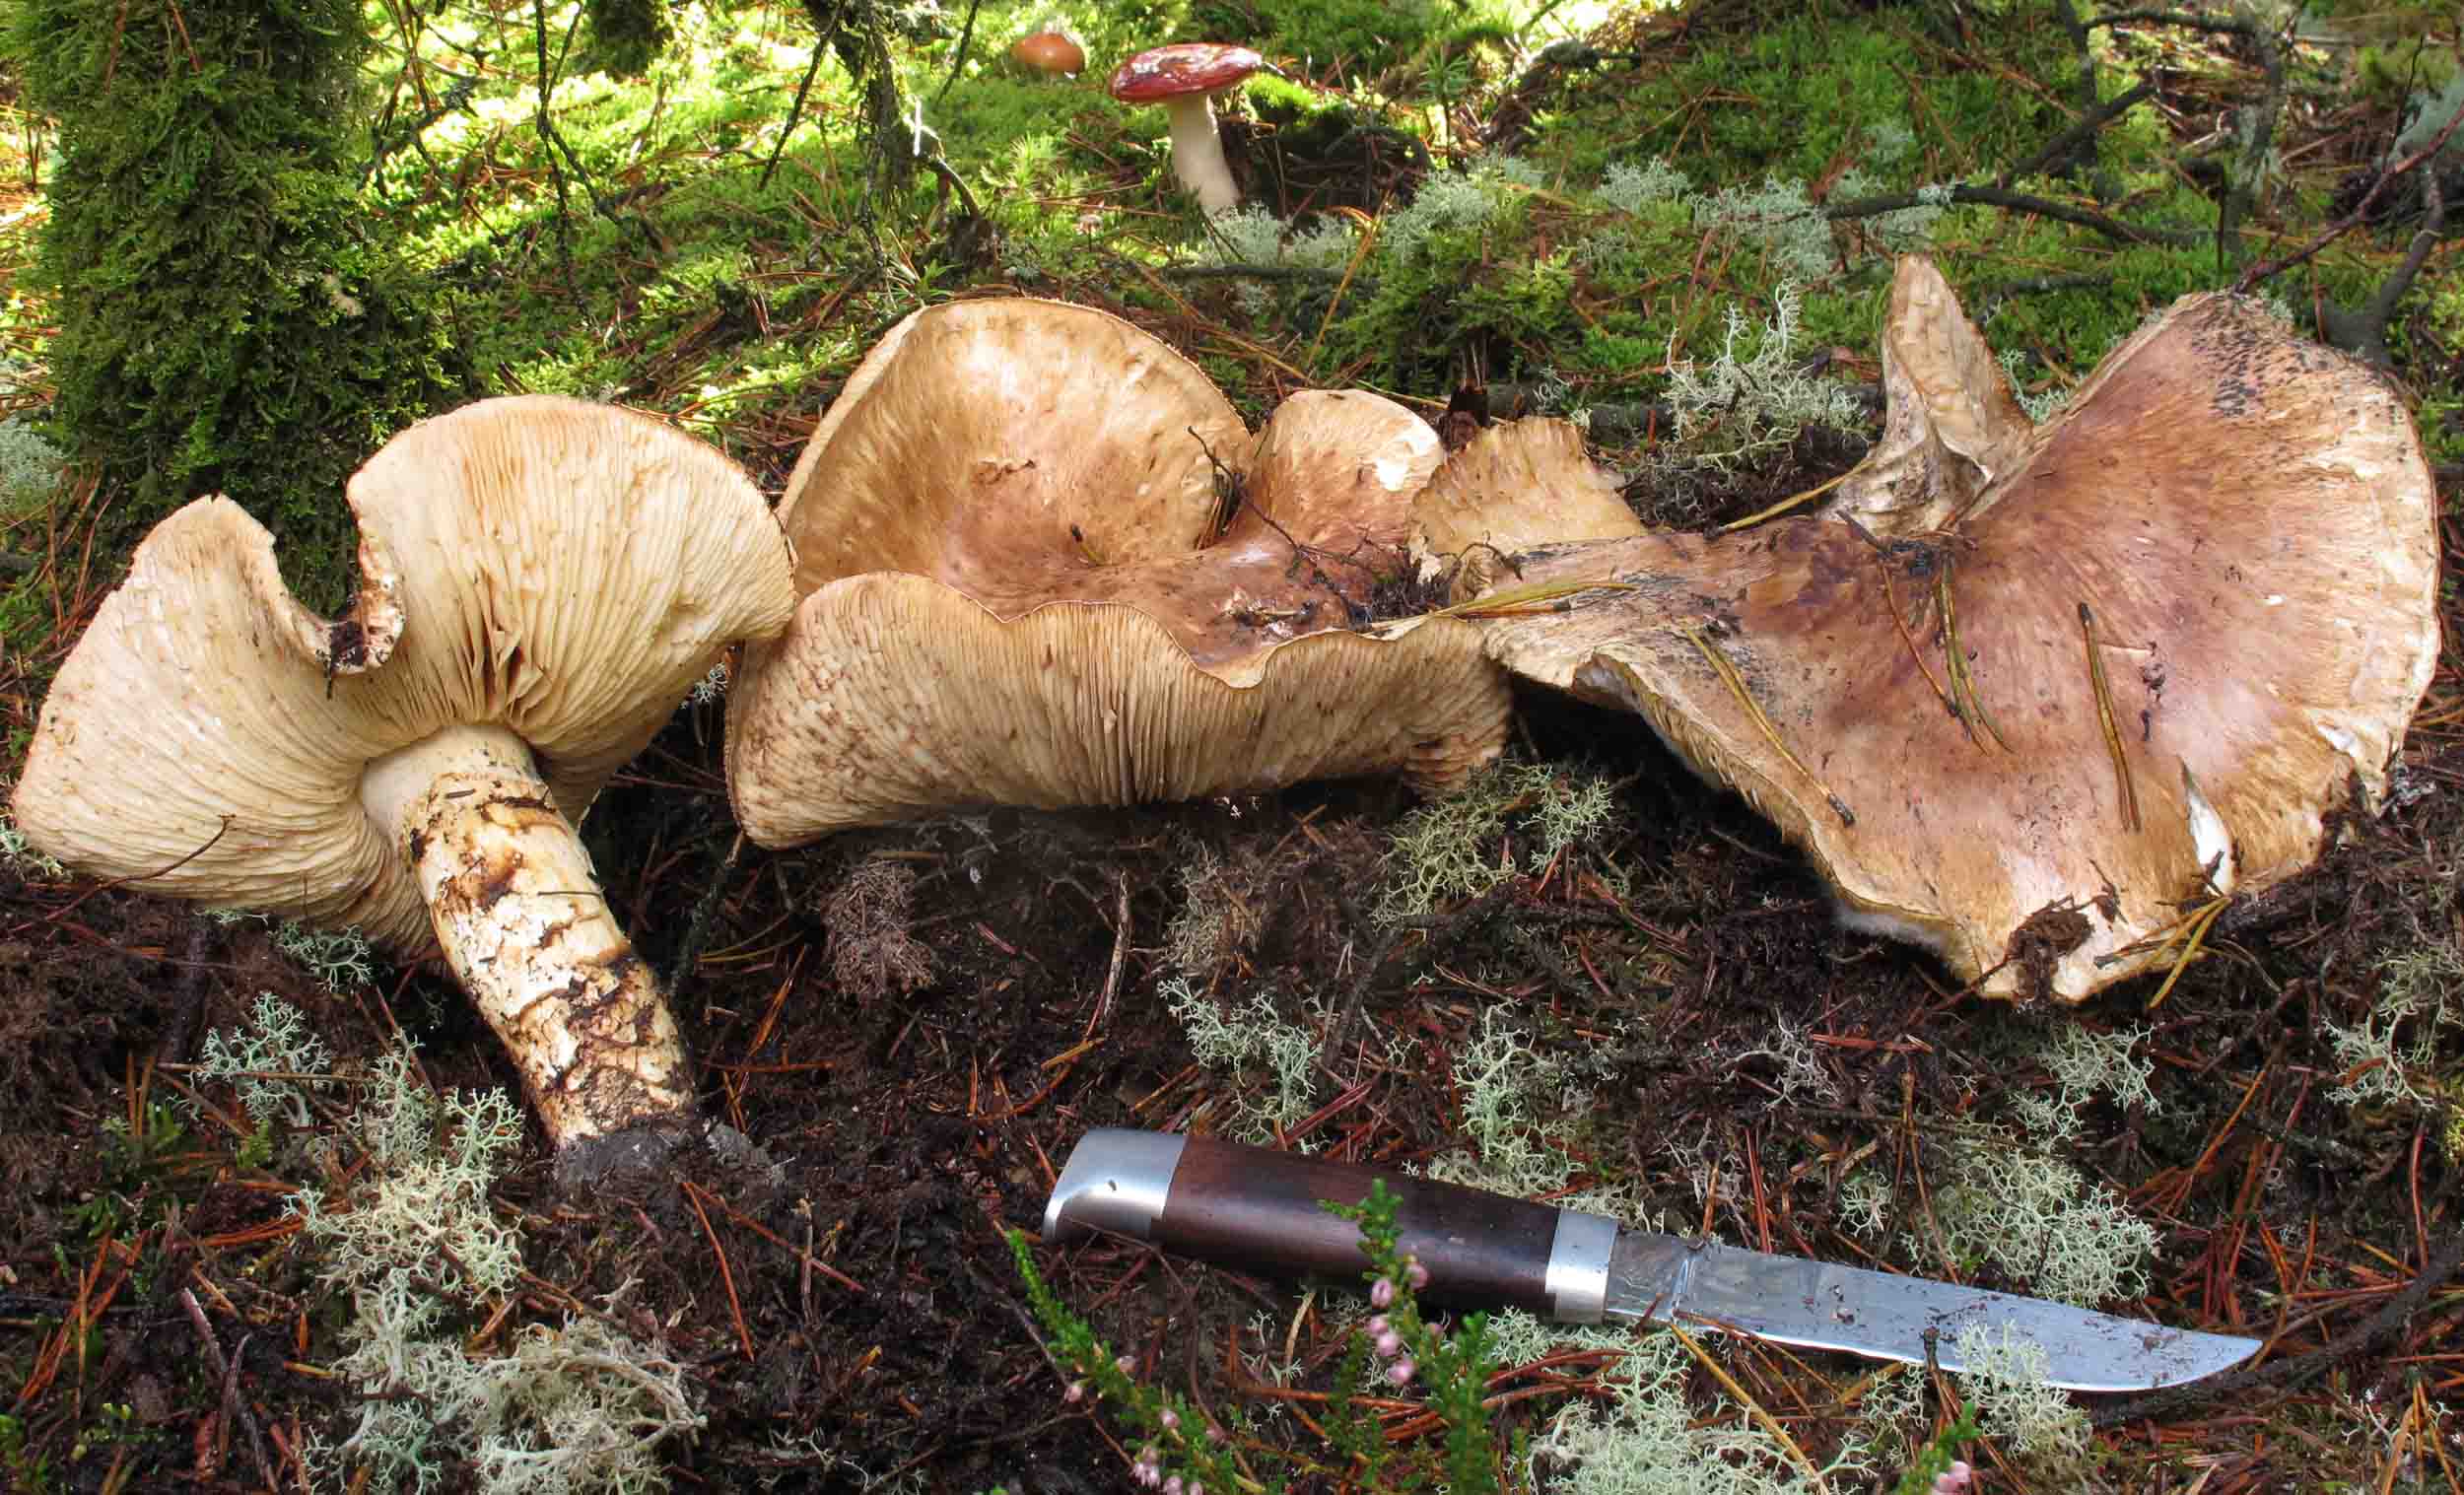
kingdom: Fungi
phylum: Basidiomycota
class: Agaricomycetes
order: Agaricales
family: Tricholomataceae
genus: Tricholoma
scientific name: Tricholoma matsutake
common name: duft-ridderhat
